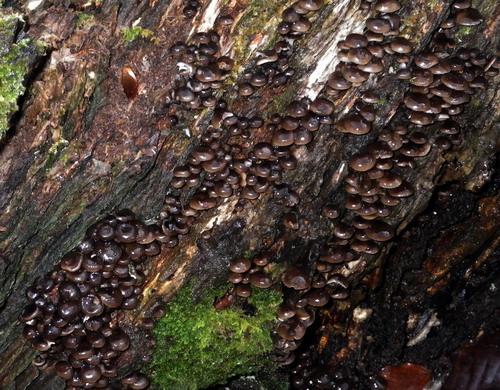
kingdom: Fungi
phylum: Basidiomycota
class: Agaricomycetes
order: Agaricales
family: Mycenaceae
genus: Mycena
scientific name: Mycena tintinnabulum
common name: vinter-huesvamp
